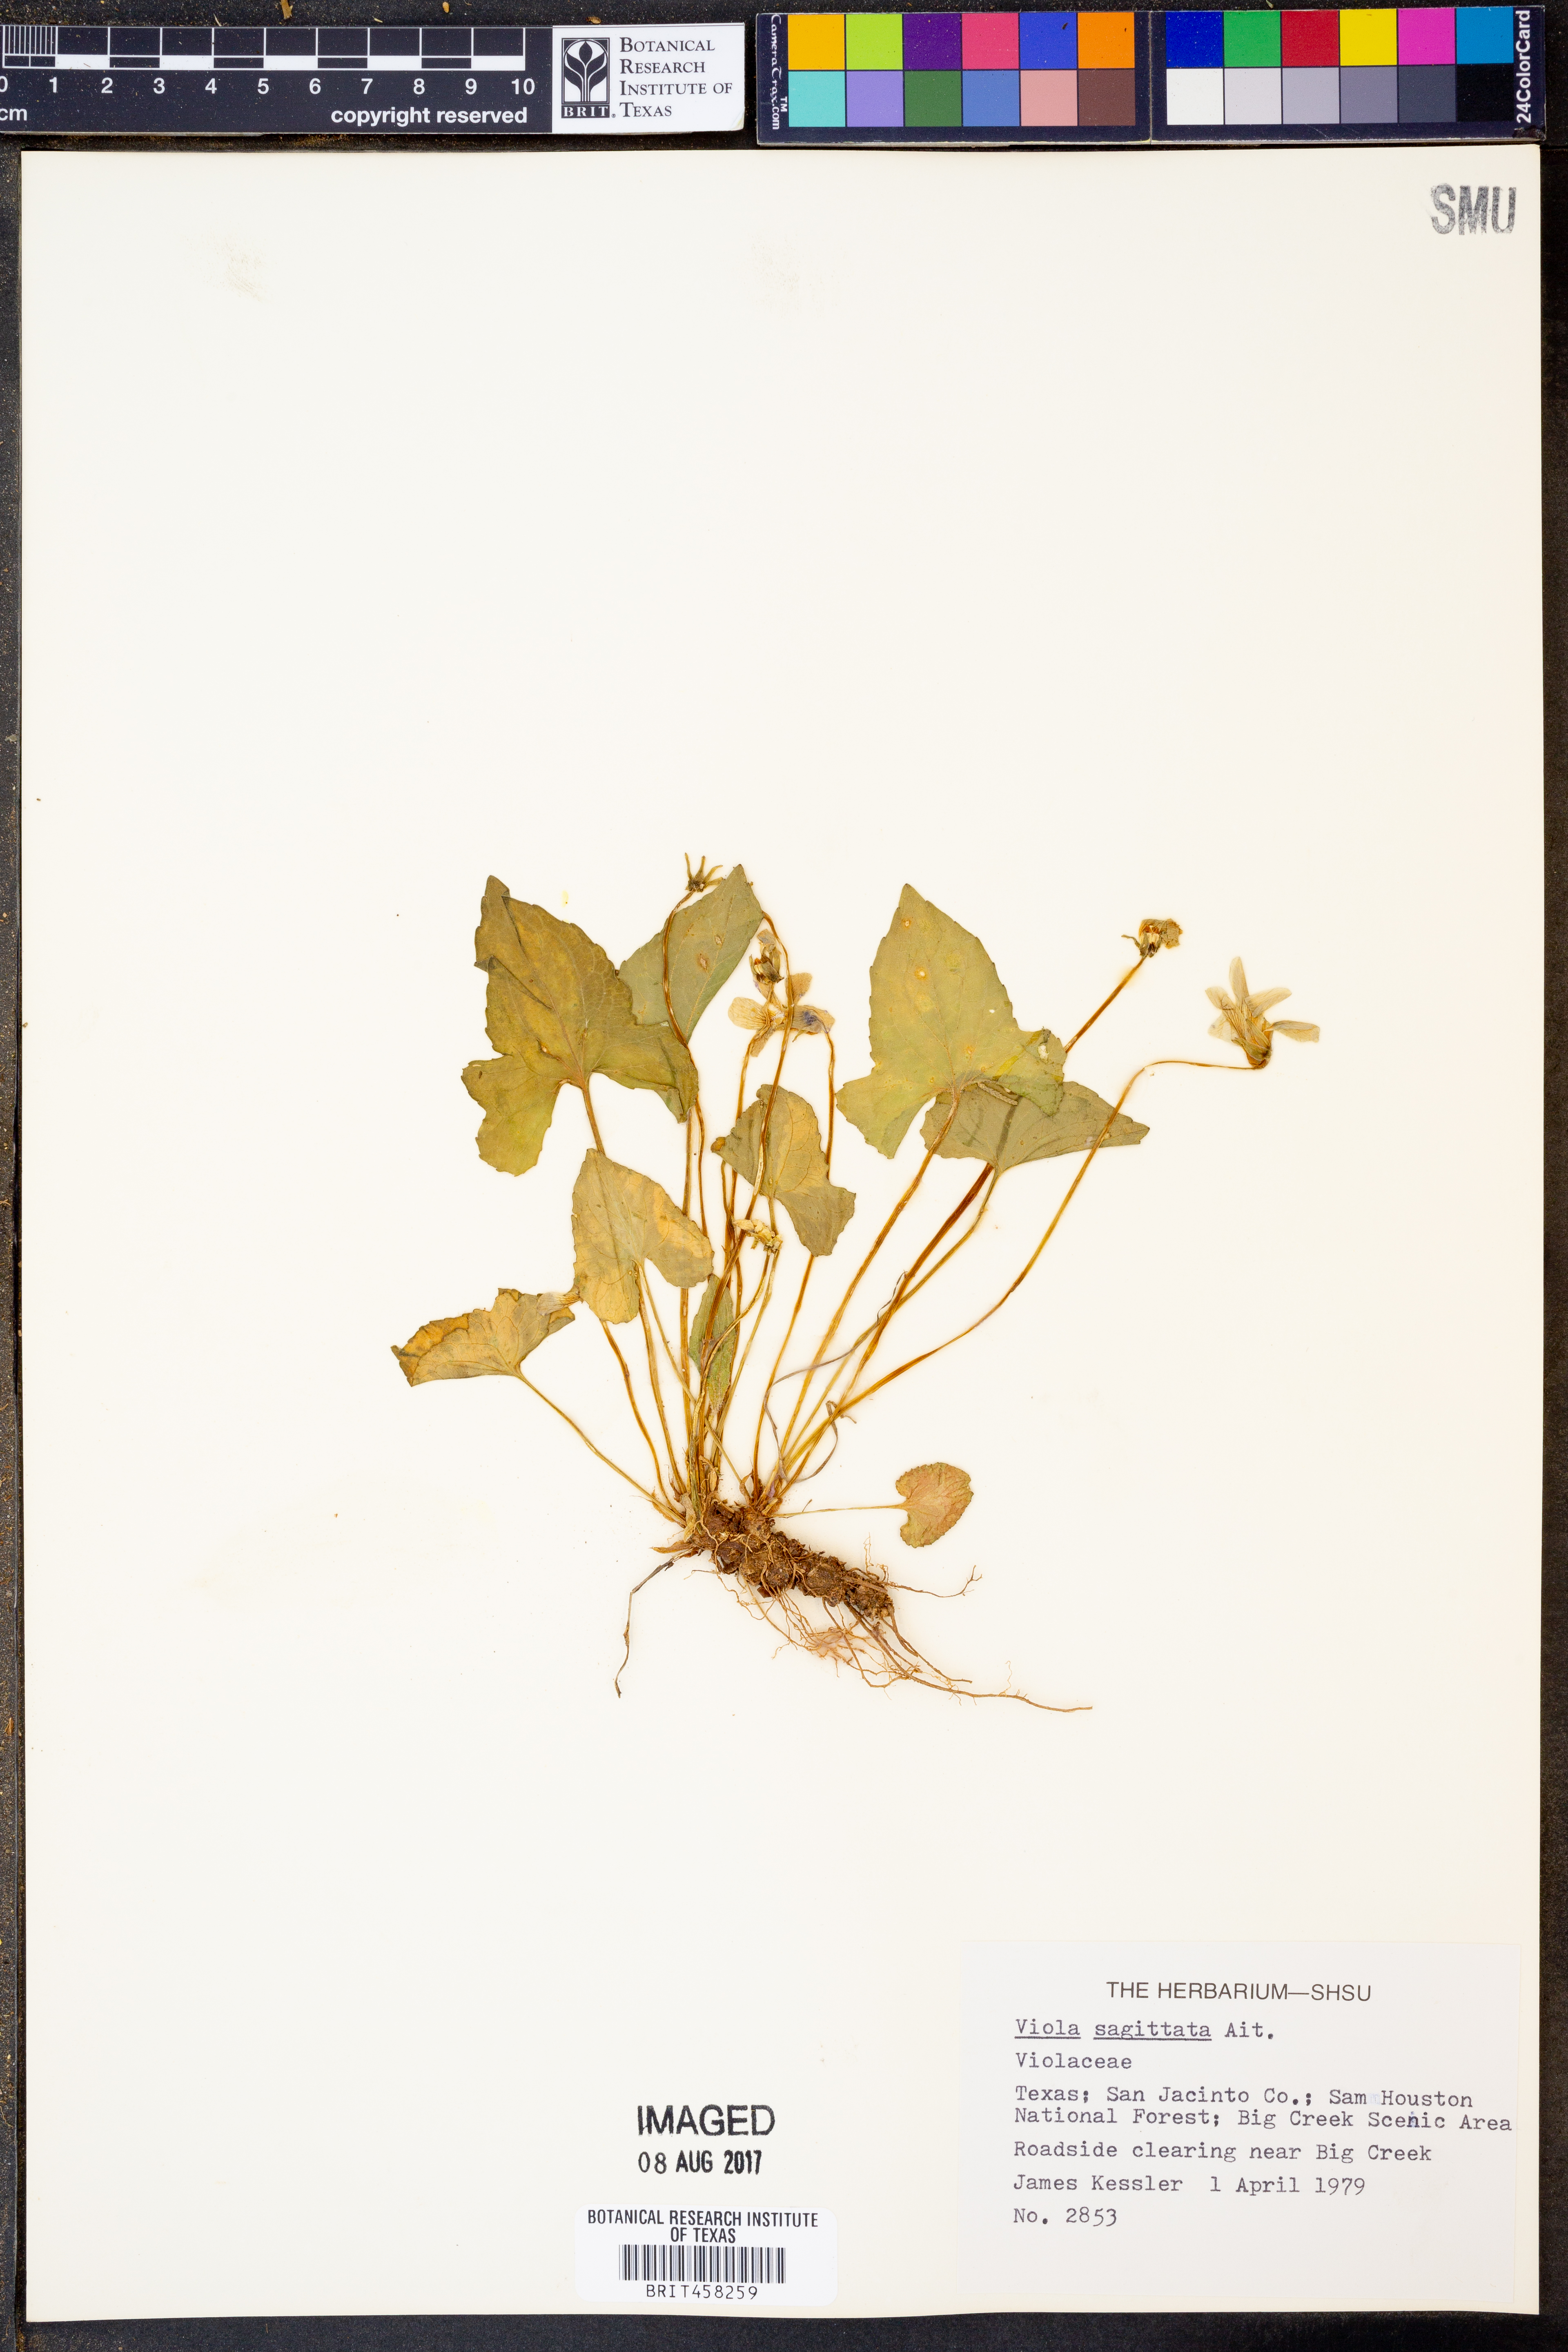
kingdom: Plantae
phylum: Tracheophyta
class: Magnoliopsida
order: Malpighiales
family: Violaceae
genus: Viola
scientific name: Viola sagittata
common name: Arrowhead violet
